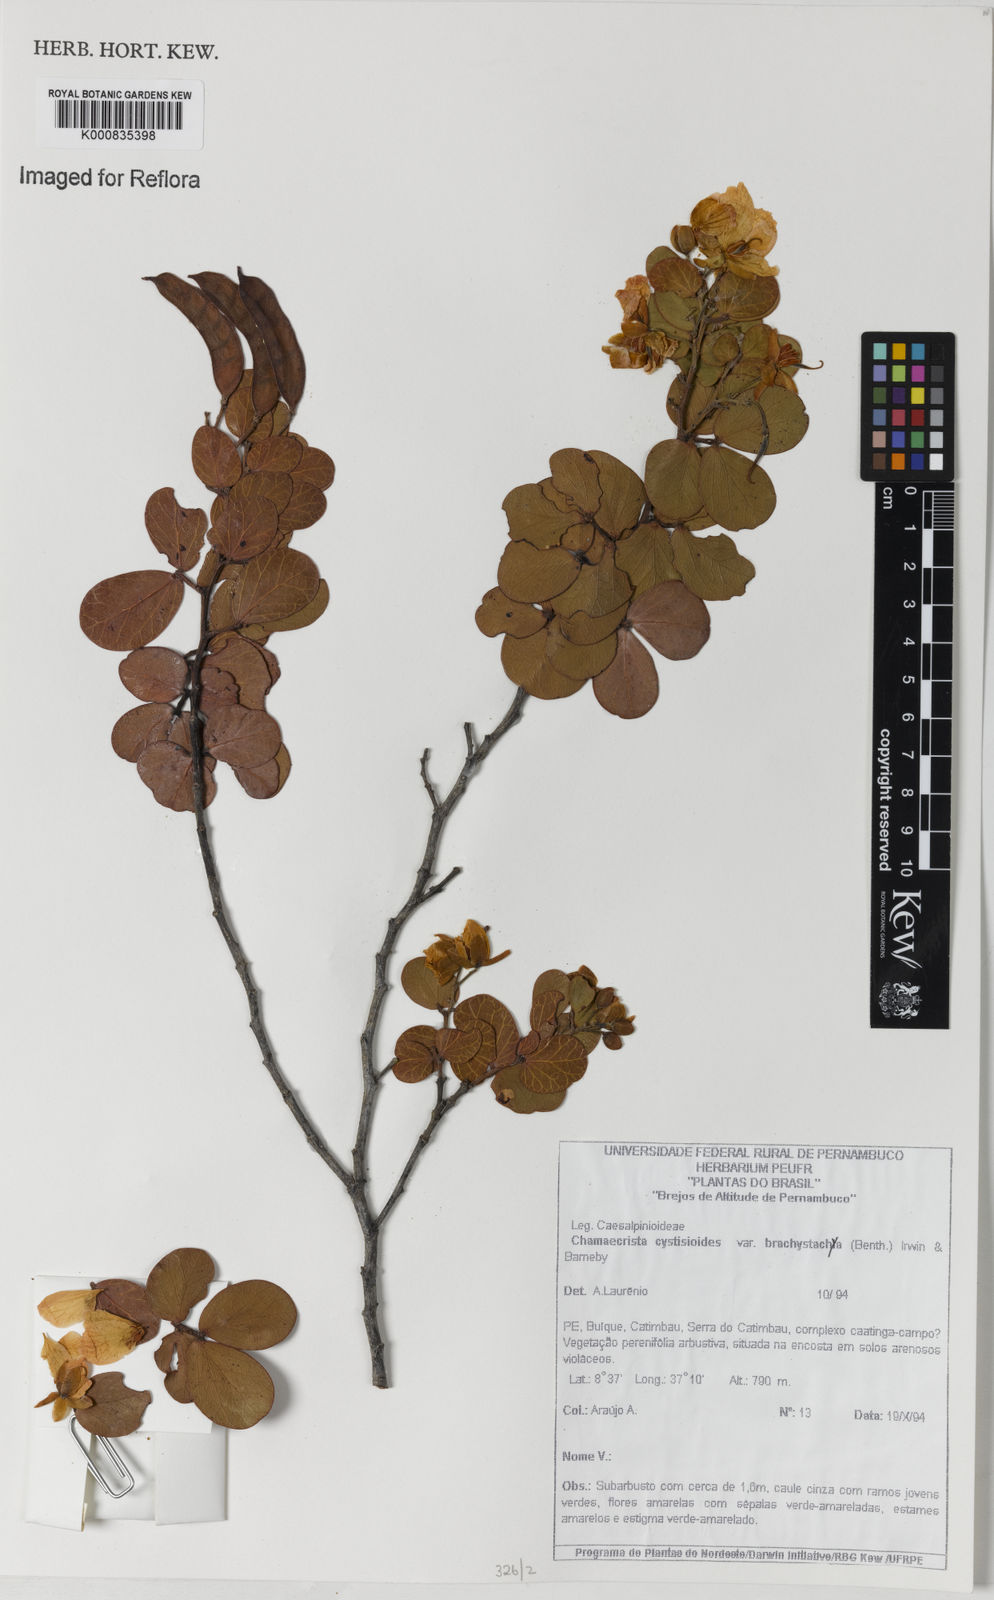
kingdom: Plantae
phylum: Tracheophyta
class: Magnoliopsida
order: Fabales
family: Fabaceae
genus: Chamaecrista
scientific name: Chamaecrista cytisoides
